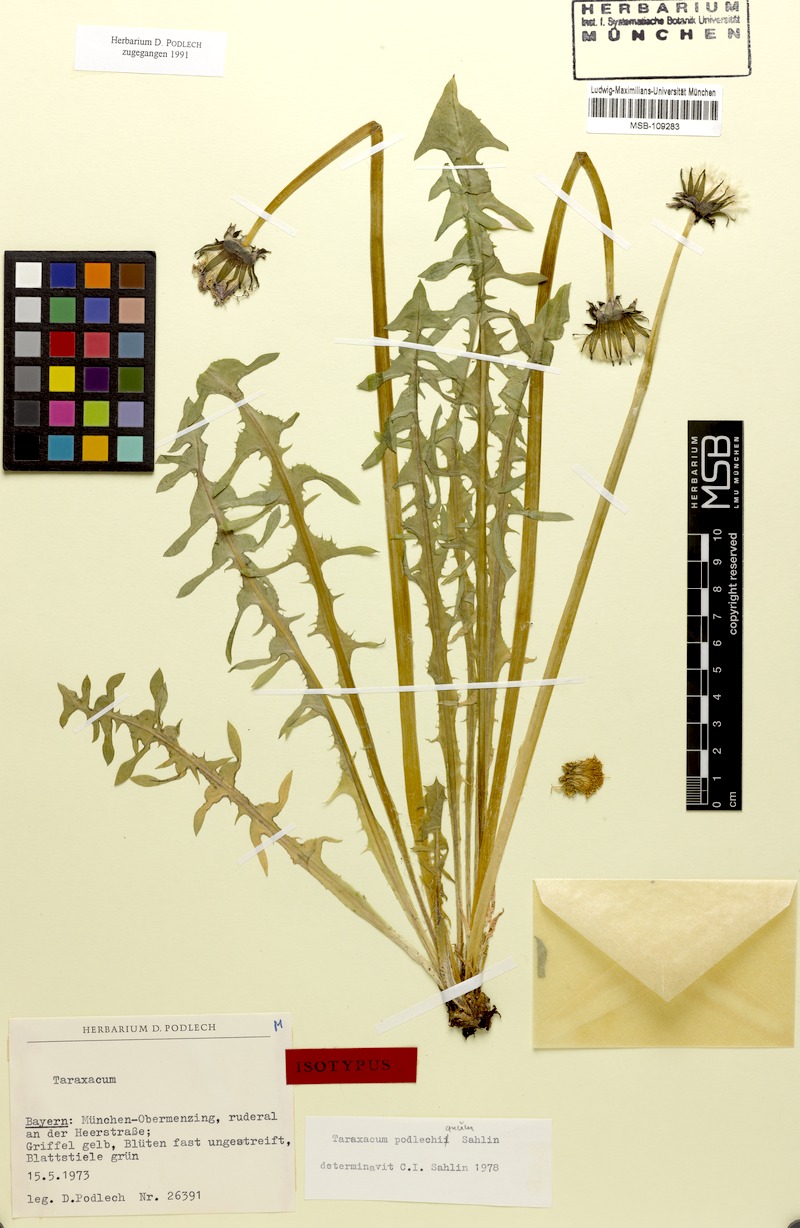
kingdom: Plantae
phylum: Tracheophyta
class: Magnoliopsida
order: Asterales
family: Asteraceae
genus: Taraxacum
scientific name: Taraxacum podlechianum
